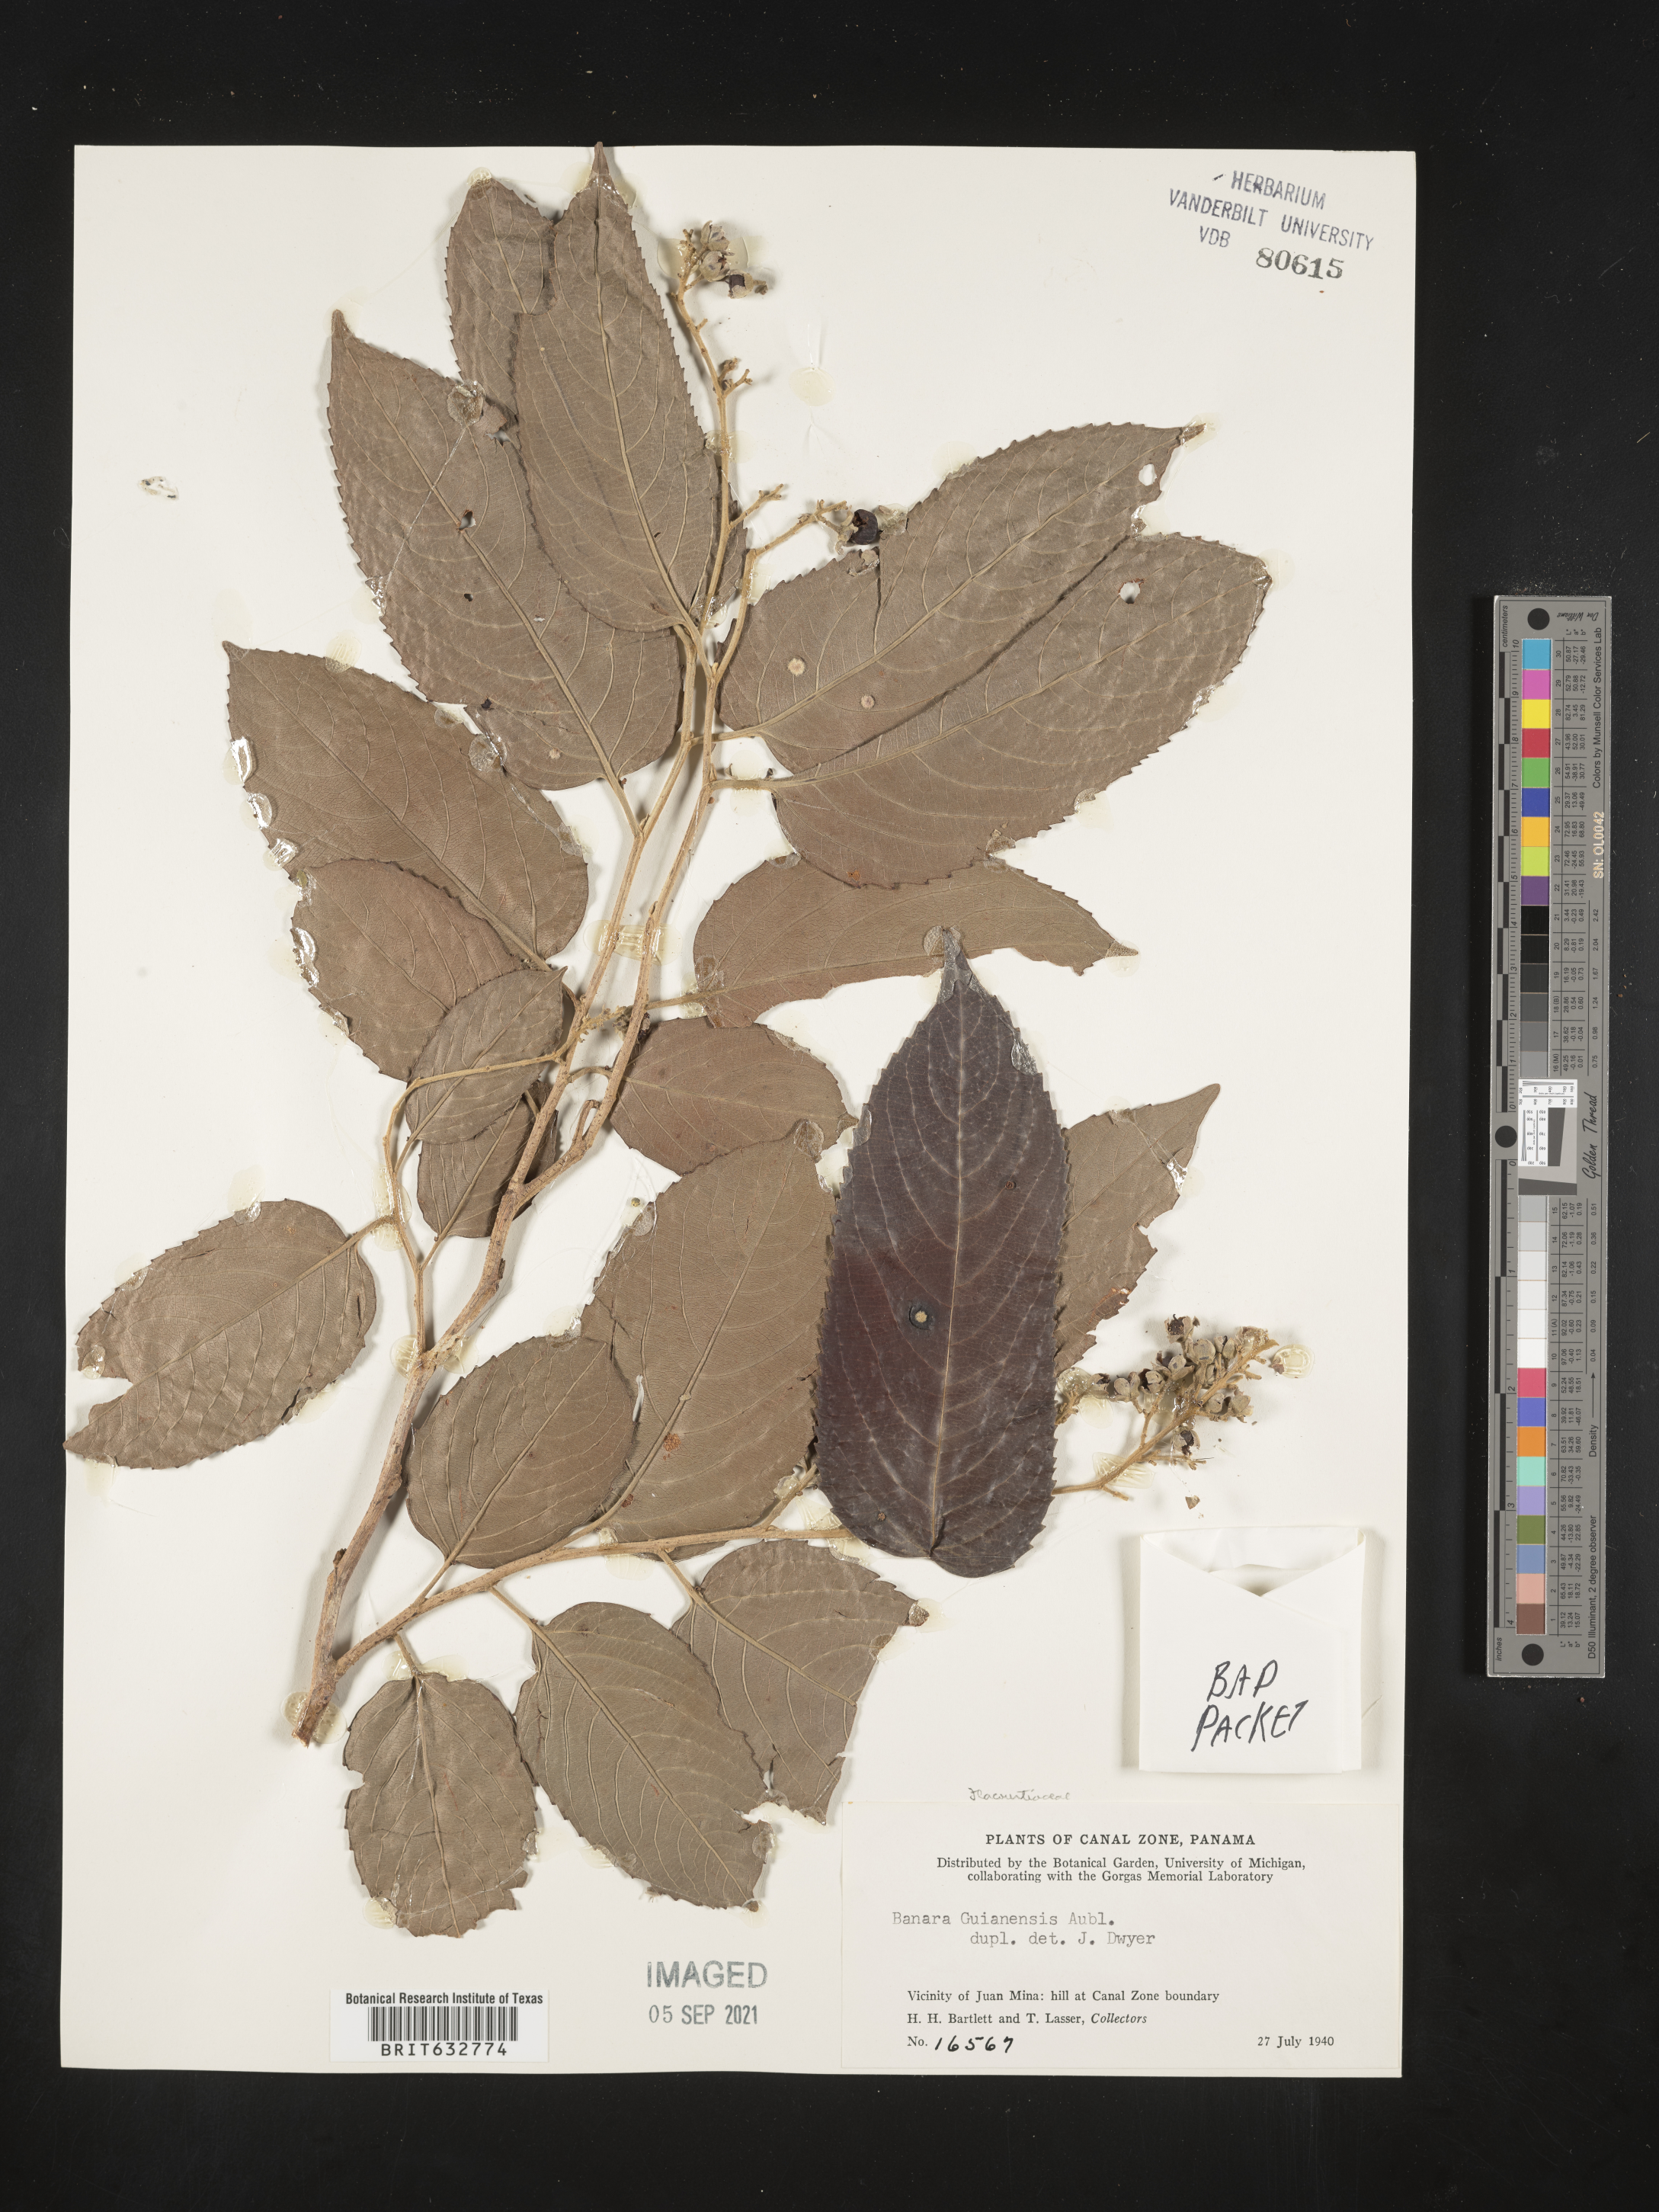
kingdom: Plantae
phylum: Tracheophyta
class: Magnoliopsida
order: Malpighiales
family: Salicaceae
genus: Banara
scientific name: Banara
